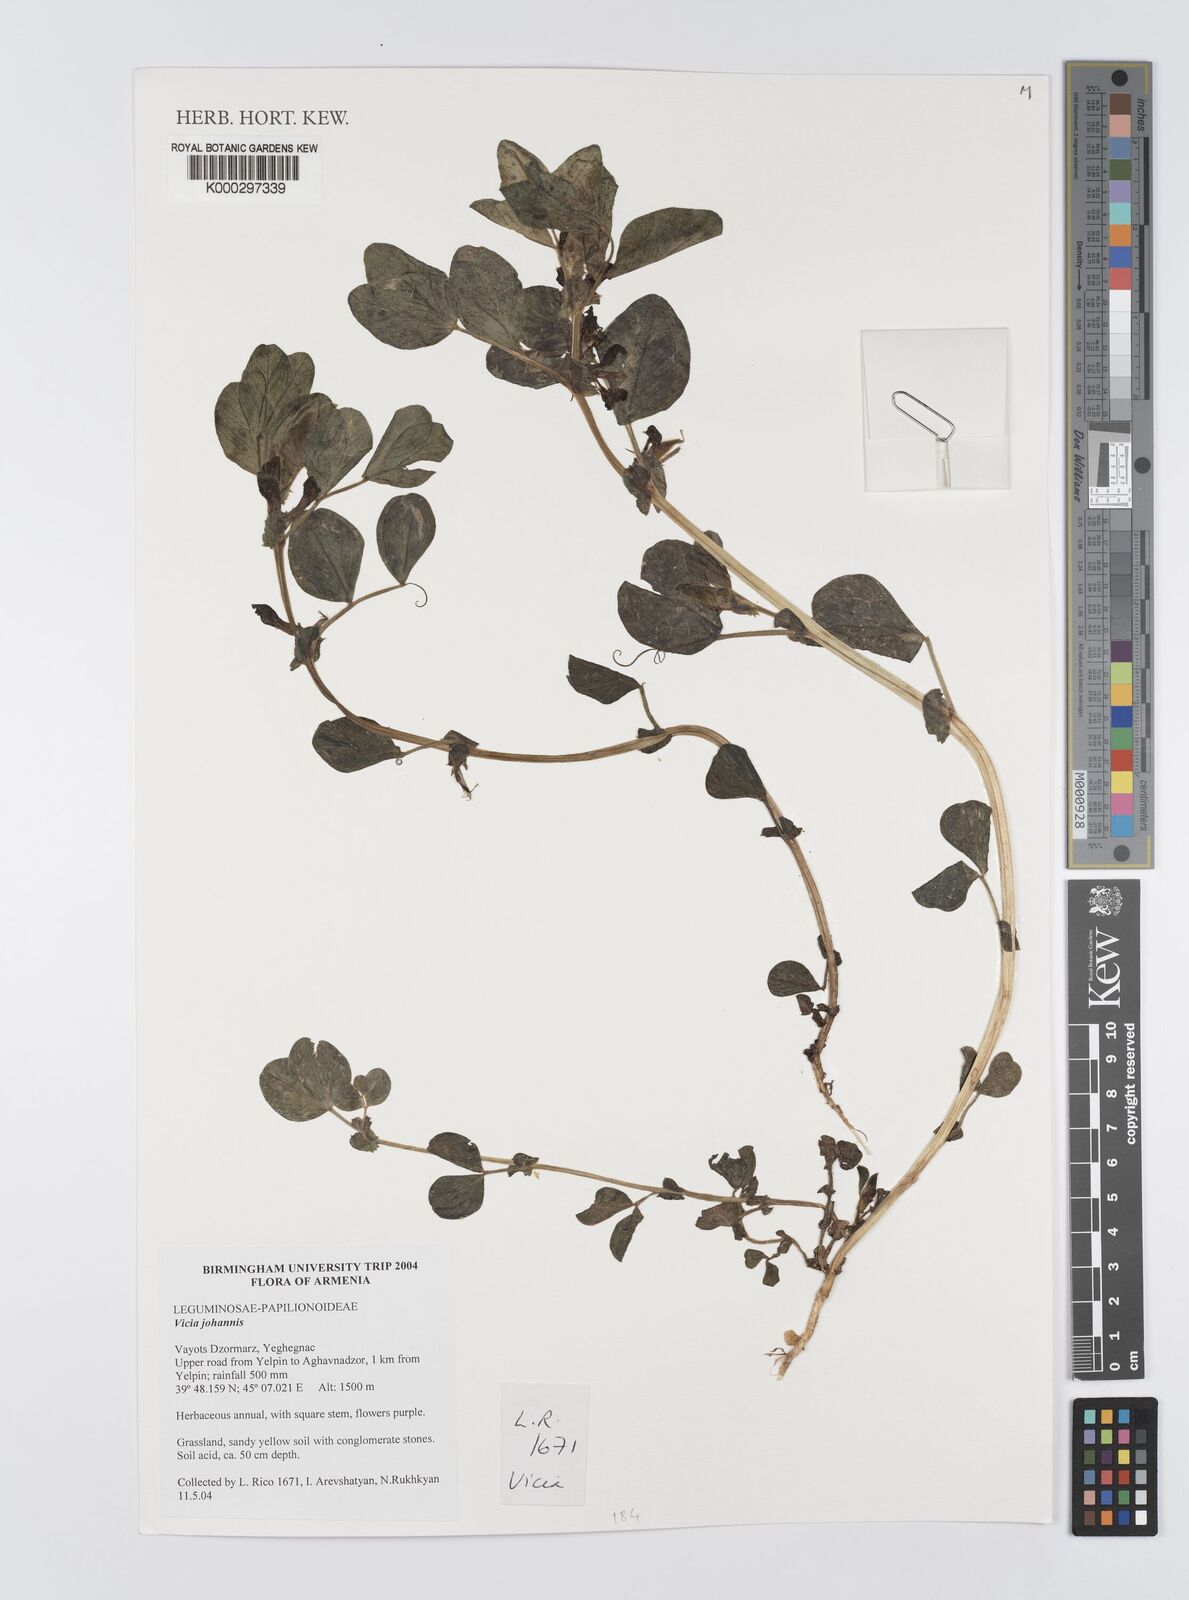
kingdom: Plantae
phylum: Tracheophyta
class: Magnoliopsida
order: Fabales
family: Fabaceae
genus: Vicia
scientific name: Vicia johannis
